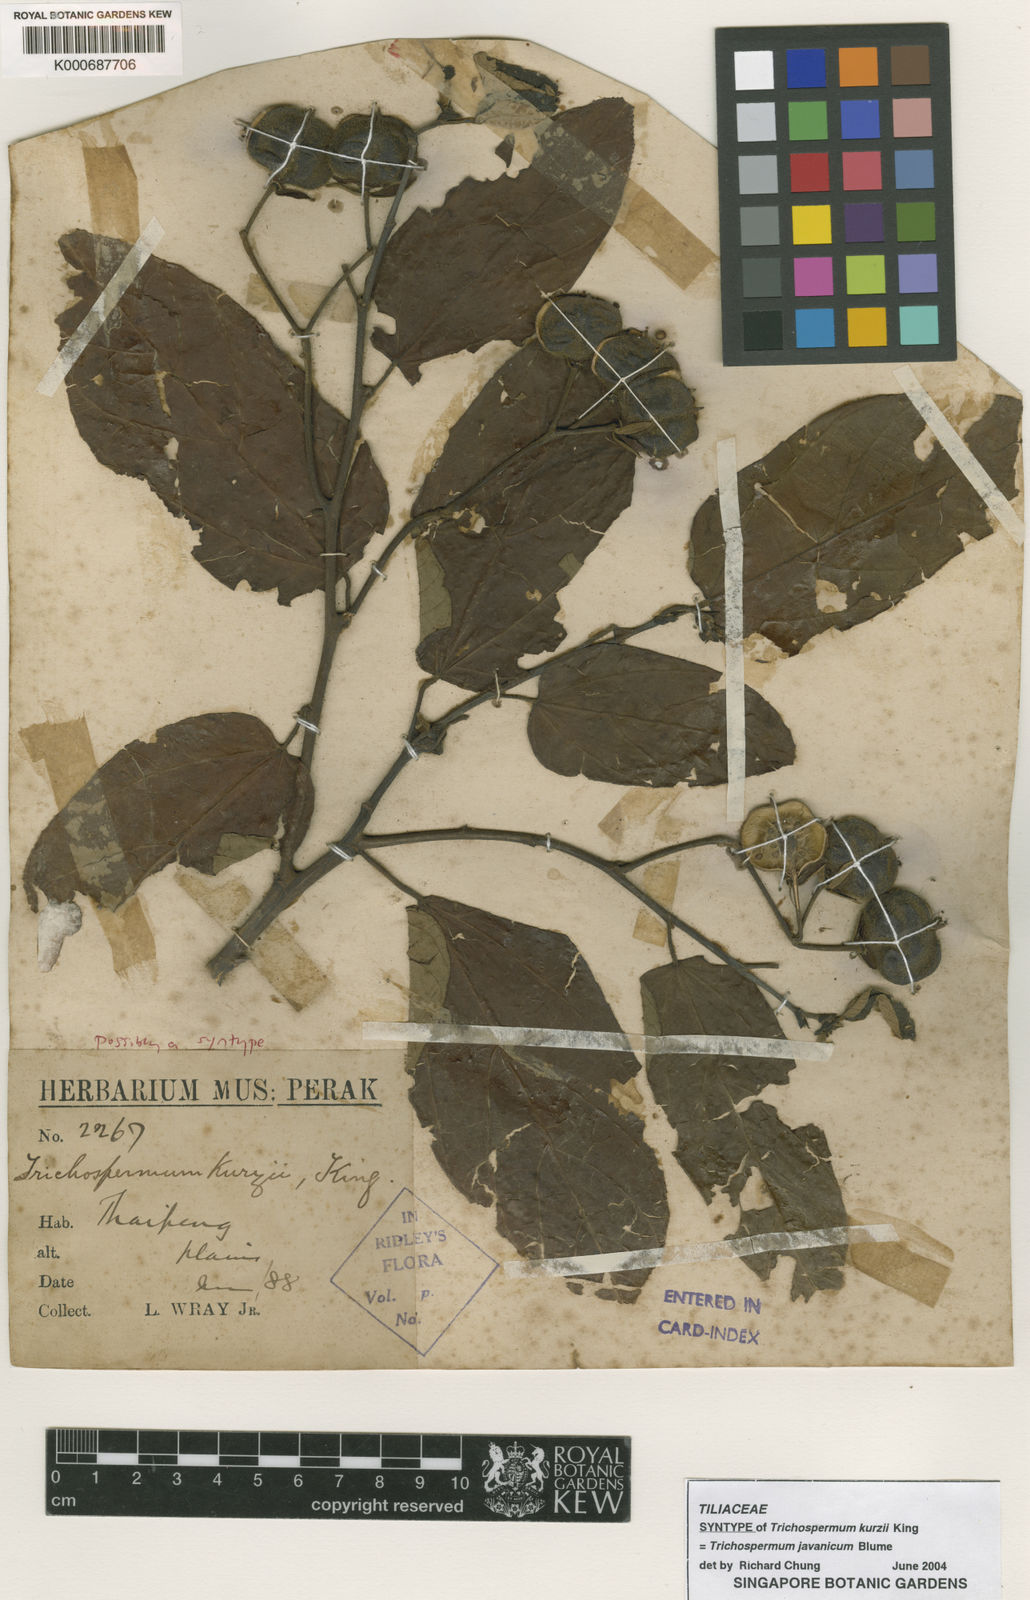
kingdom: Plantae
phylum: Tracheophyta
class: Magnoliopsida
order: Malvales
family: Malvaceae
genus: Trichospermum
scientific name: Trichospermum javanicum
